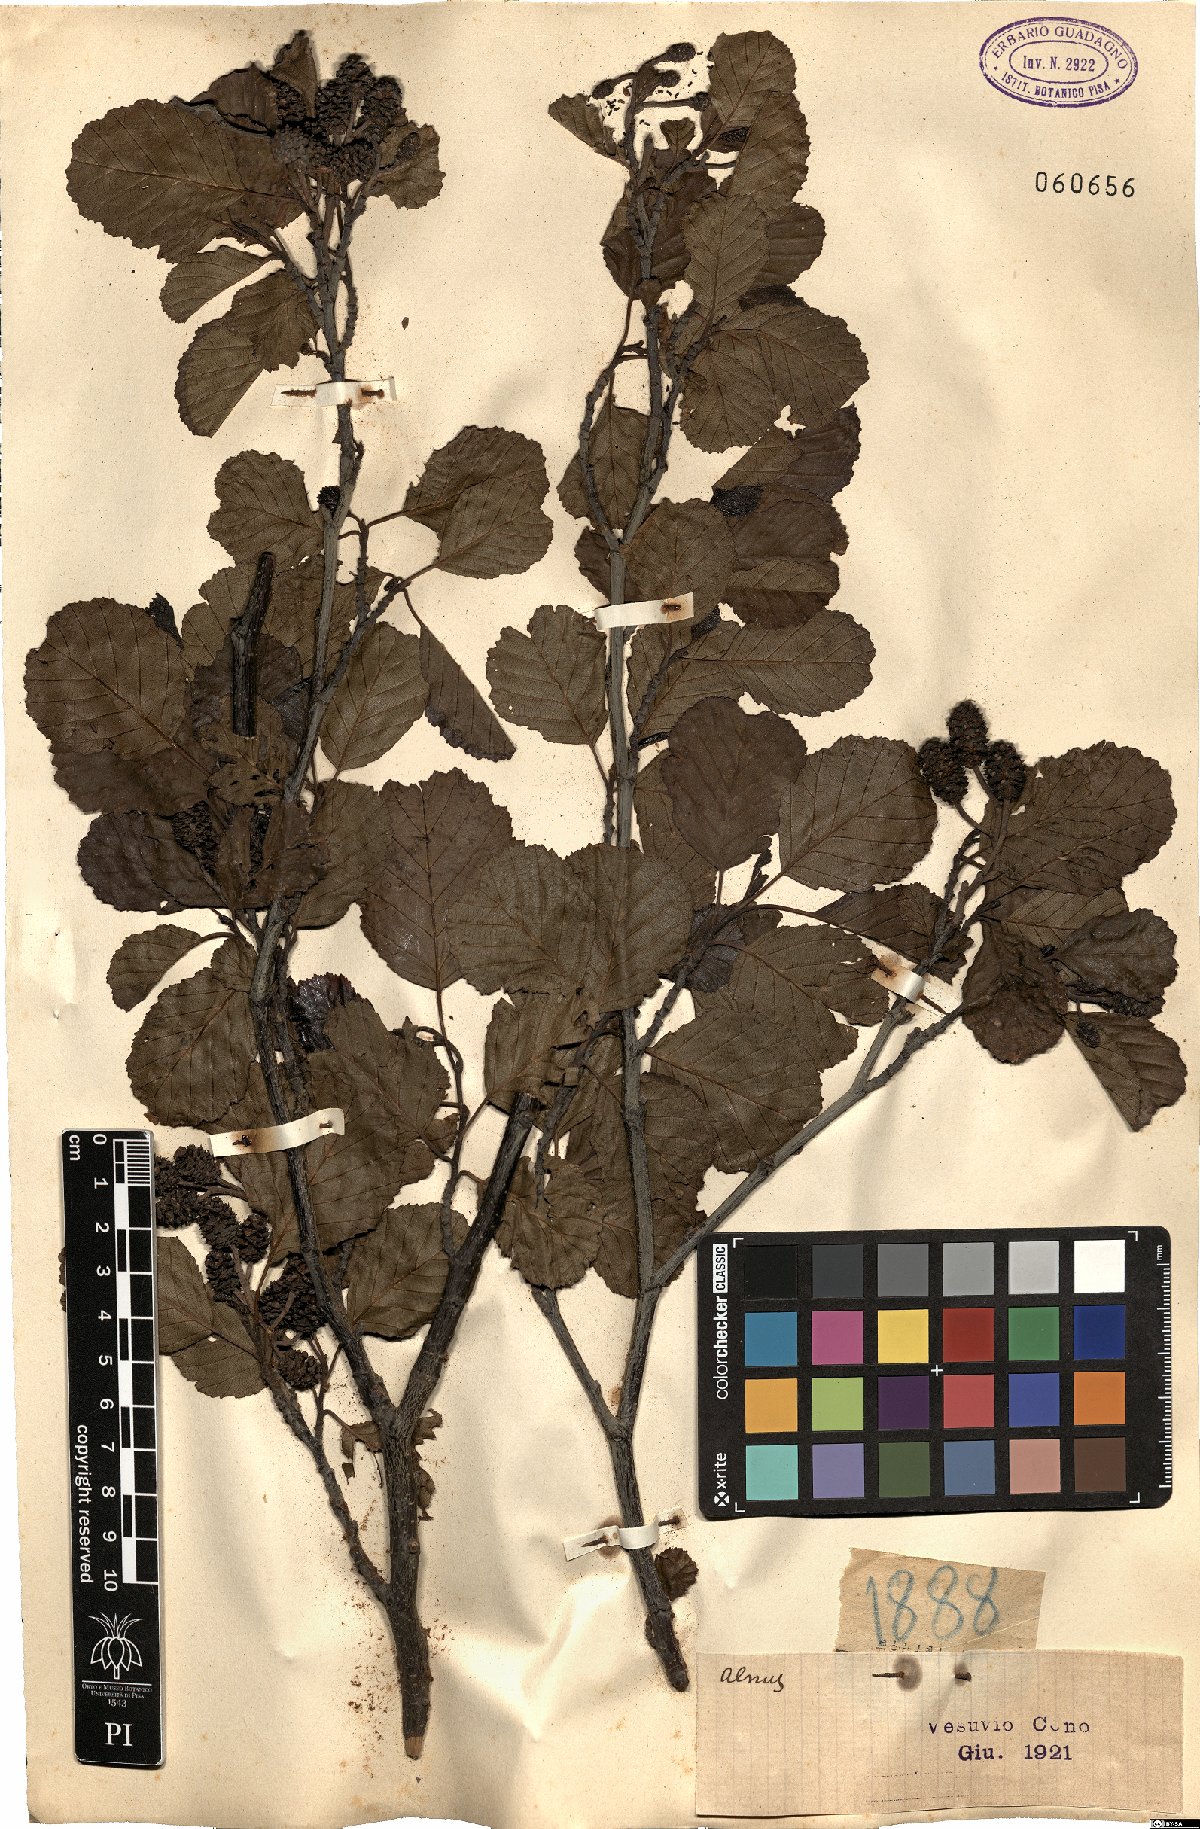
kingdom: Plantae
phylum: Tracheophyta
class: Magnoliopsida
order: Fagales
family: Betulaceae
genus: Alnus
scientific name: Alnus
